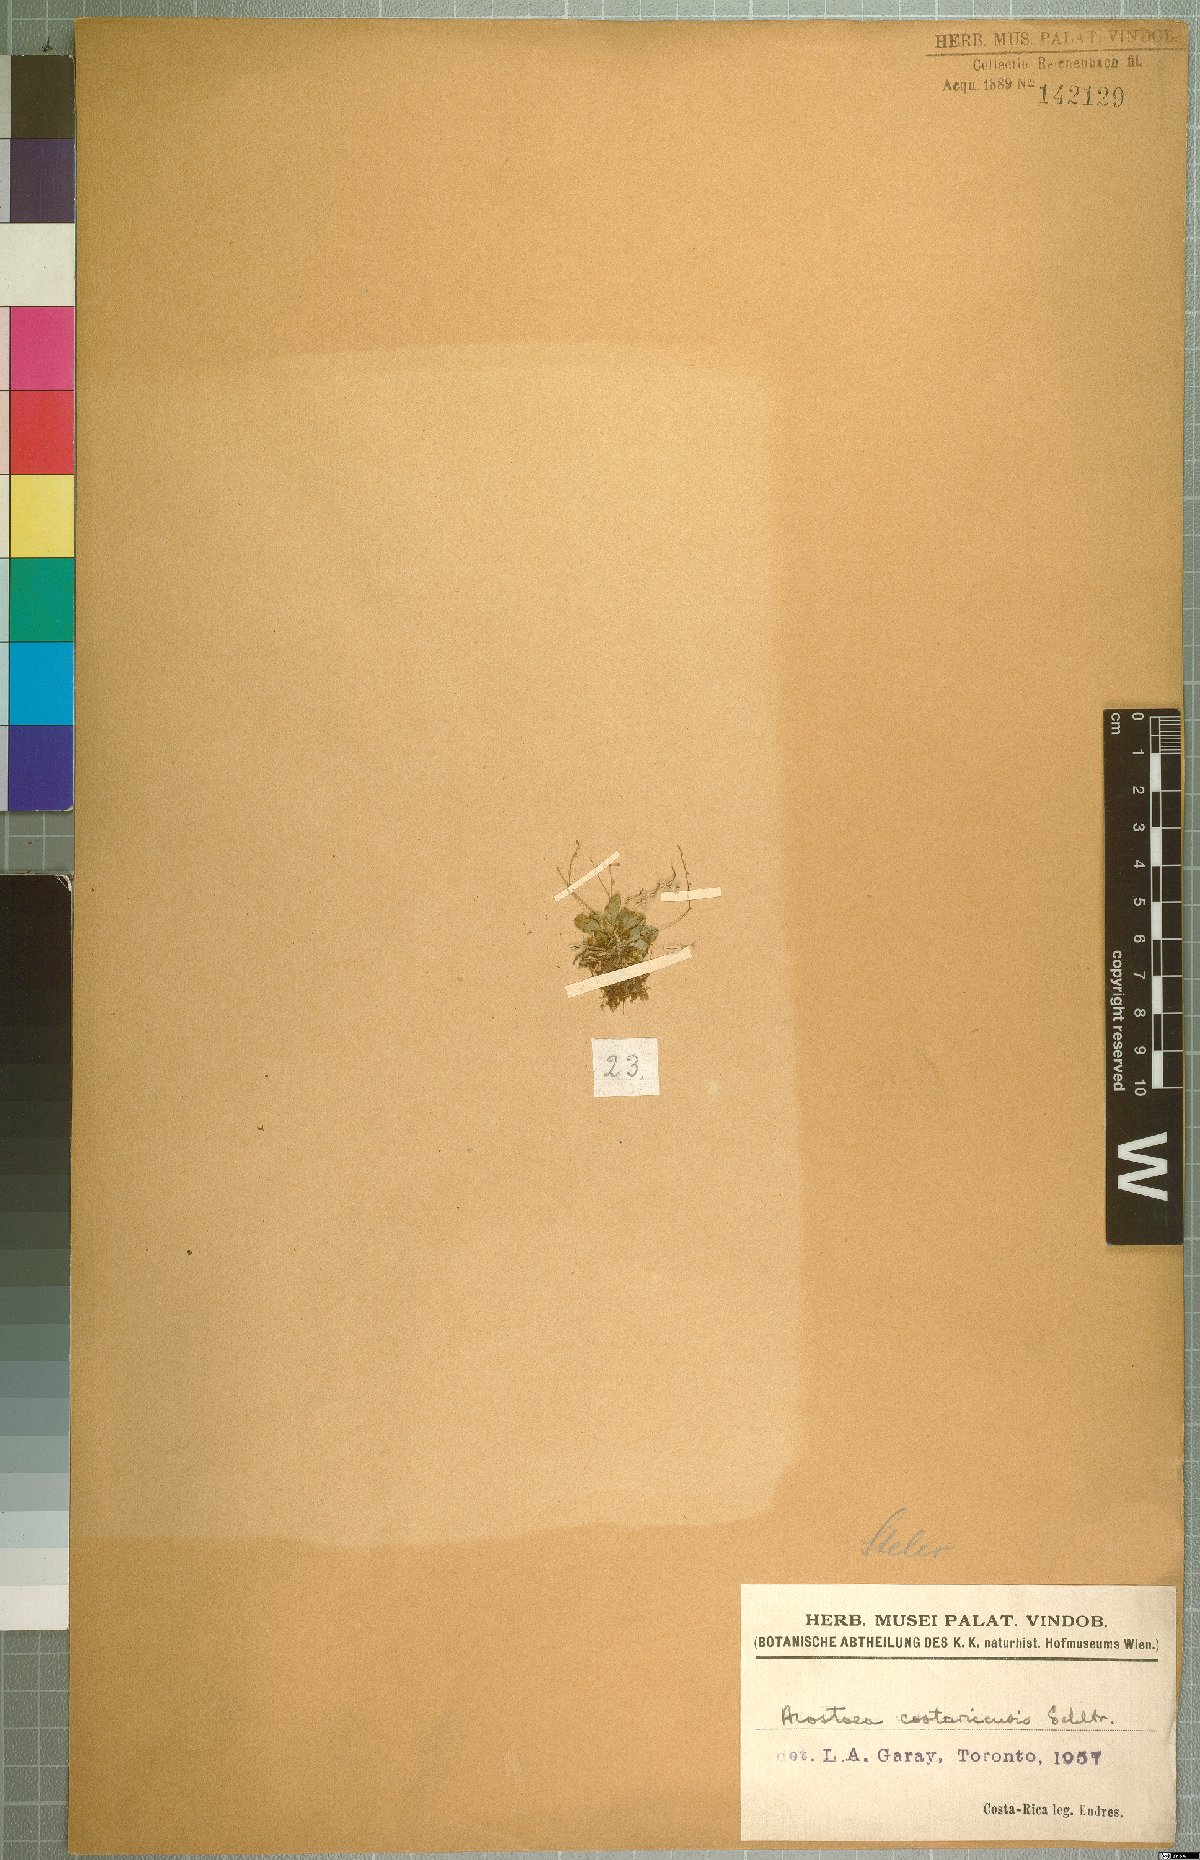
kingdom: Plantae
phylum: Tracheophyta
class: Liliopsida
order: Asparagales
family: Orchidaceae
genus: Specklinia
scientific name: Specklinia colombiana
